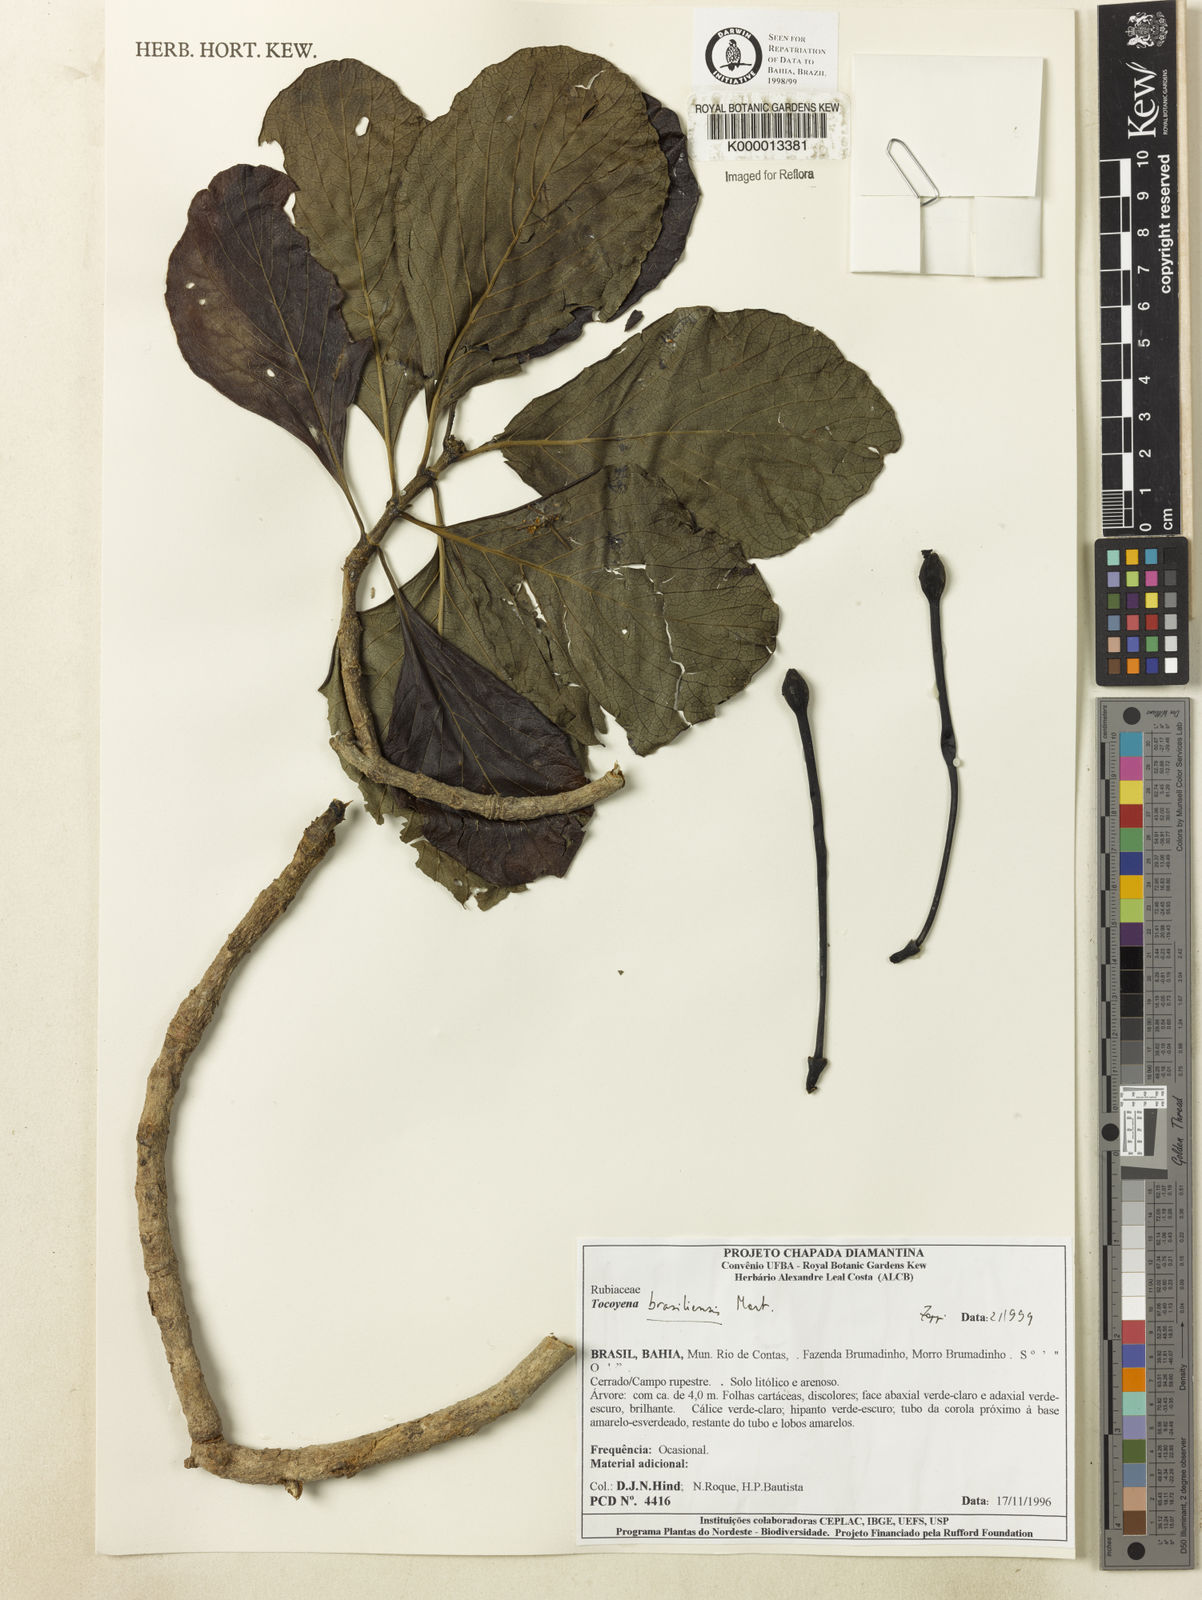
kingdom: Plantae
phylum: Tracheophyta
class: Magnoliopsida
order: Gentianales
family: Rubiaceae
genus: Tocoyena
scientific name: Tocoyena sprucei
